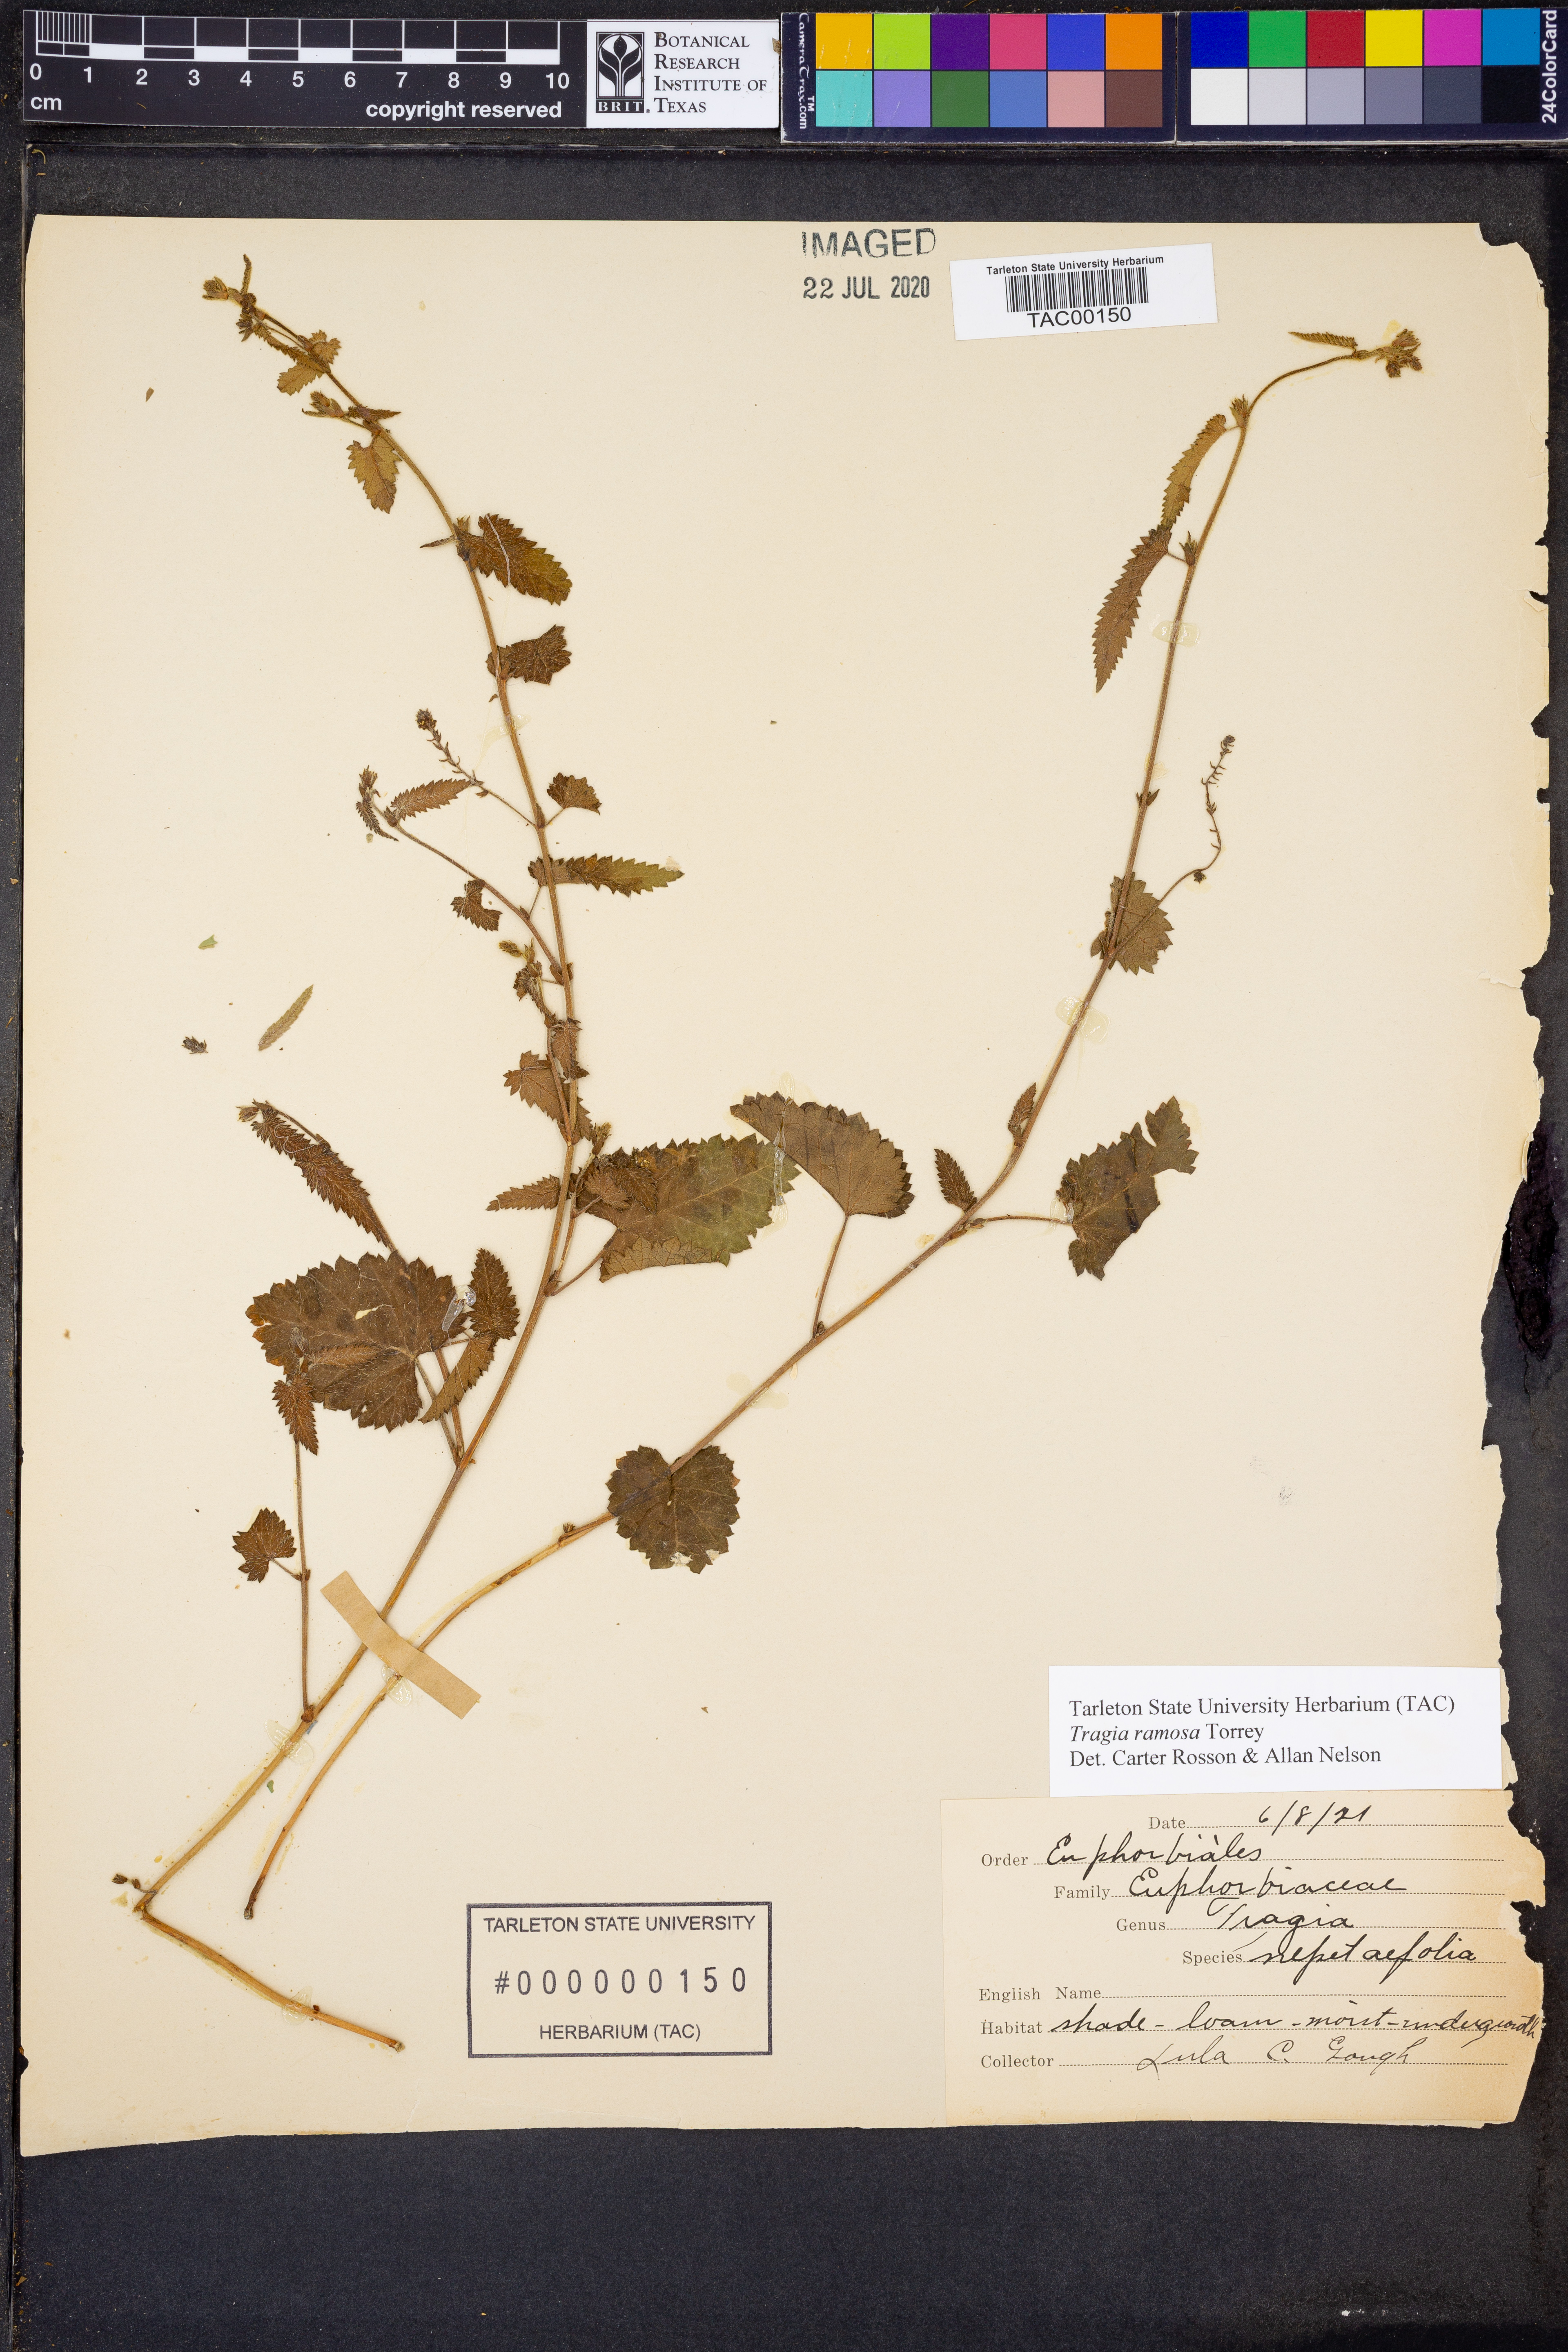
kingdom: Plantae
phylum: Tracheophyta
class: Magnoliopsida
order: Malpighiales
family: Euphorbiaceae
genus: Tragia
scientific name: Tragia ramosa
